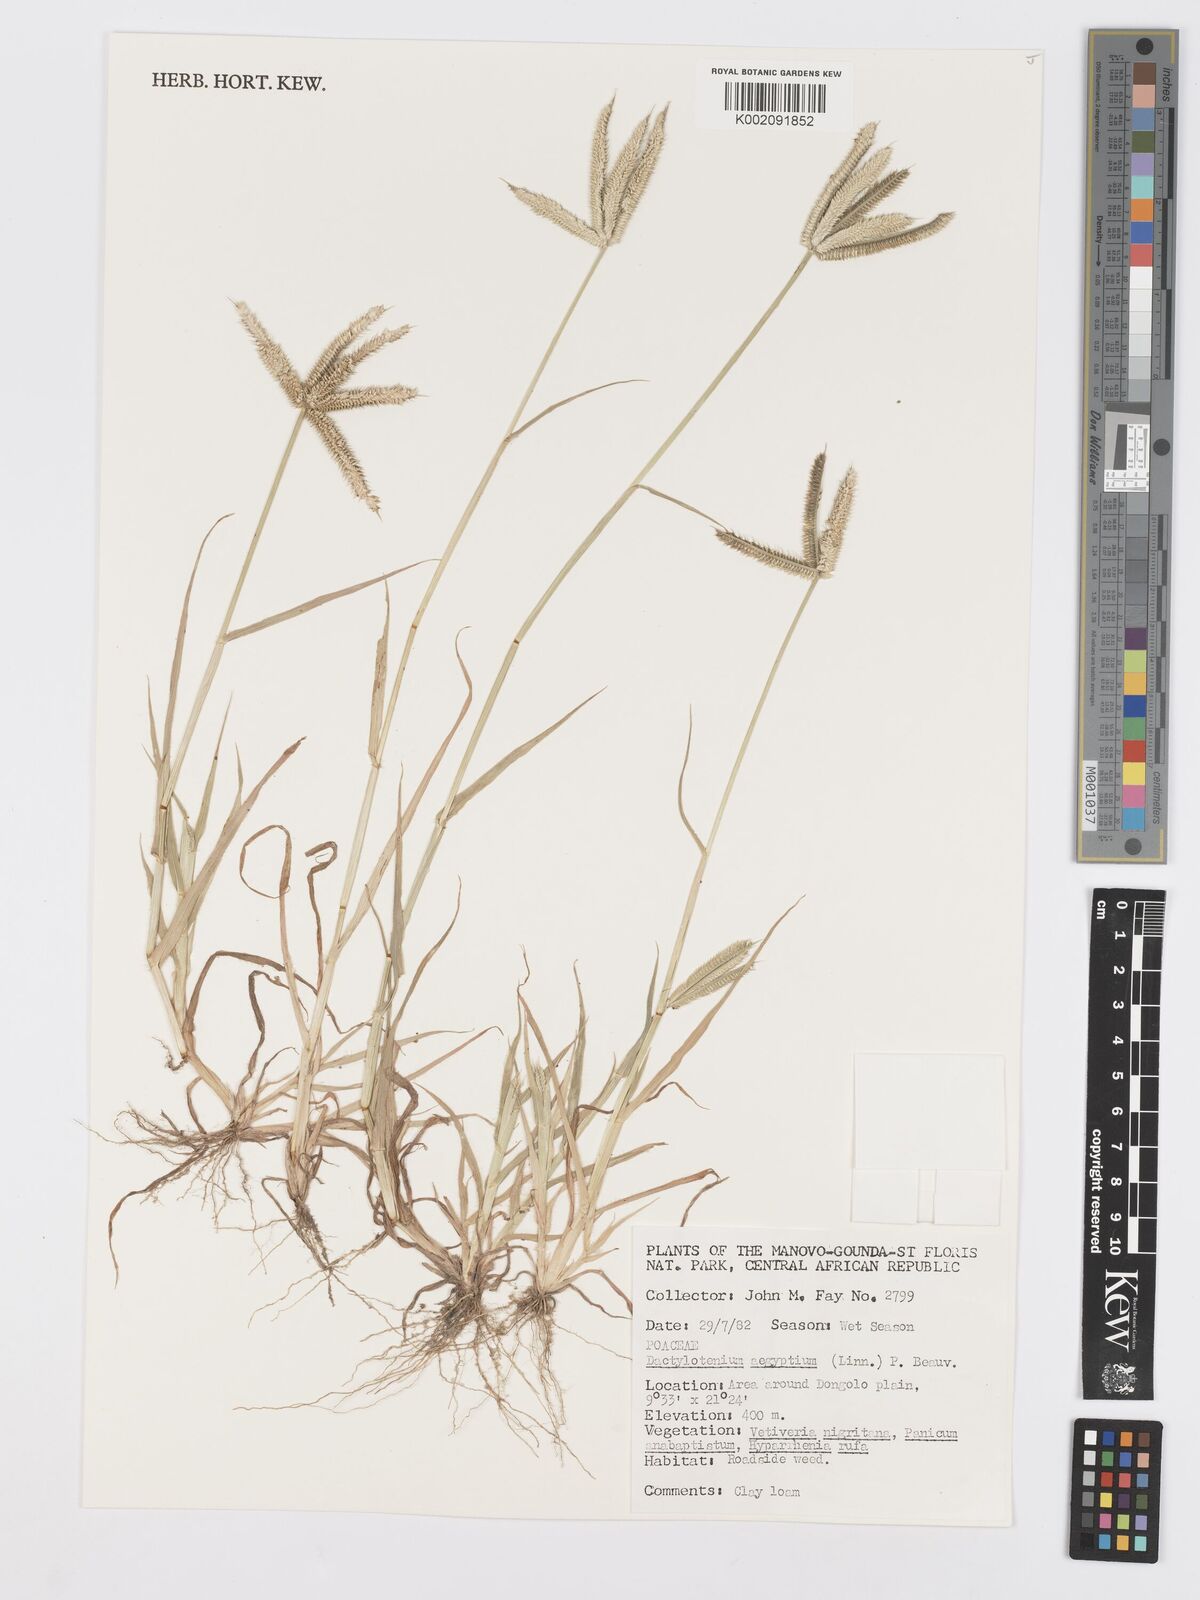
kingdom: Plantae
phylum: Tracheophyta
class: Liliopsida
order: Poales
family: Poaceae
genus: Dactyloctenium
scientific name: Dactyloctenium aegyptium
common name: Egyptian grass
